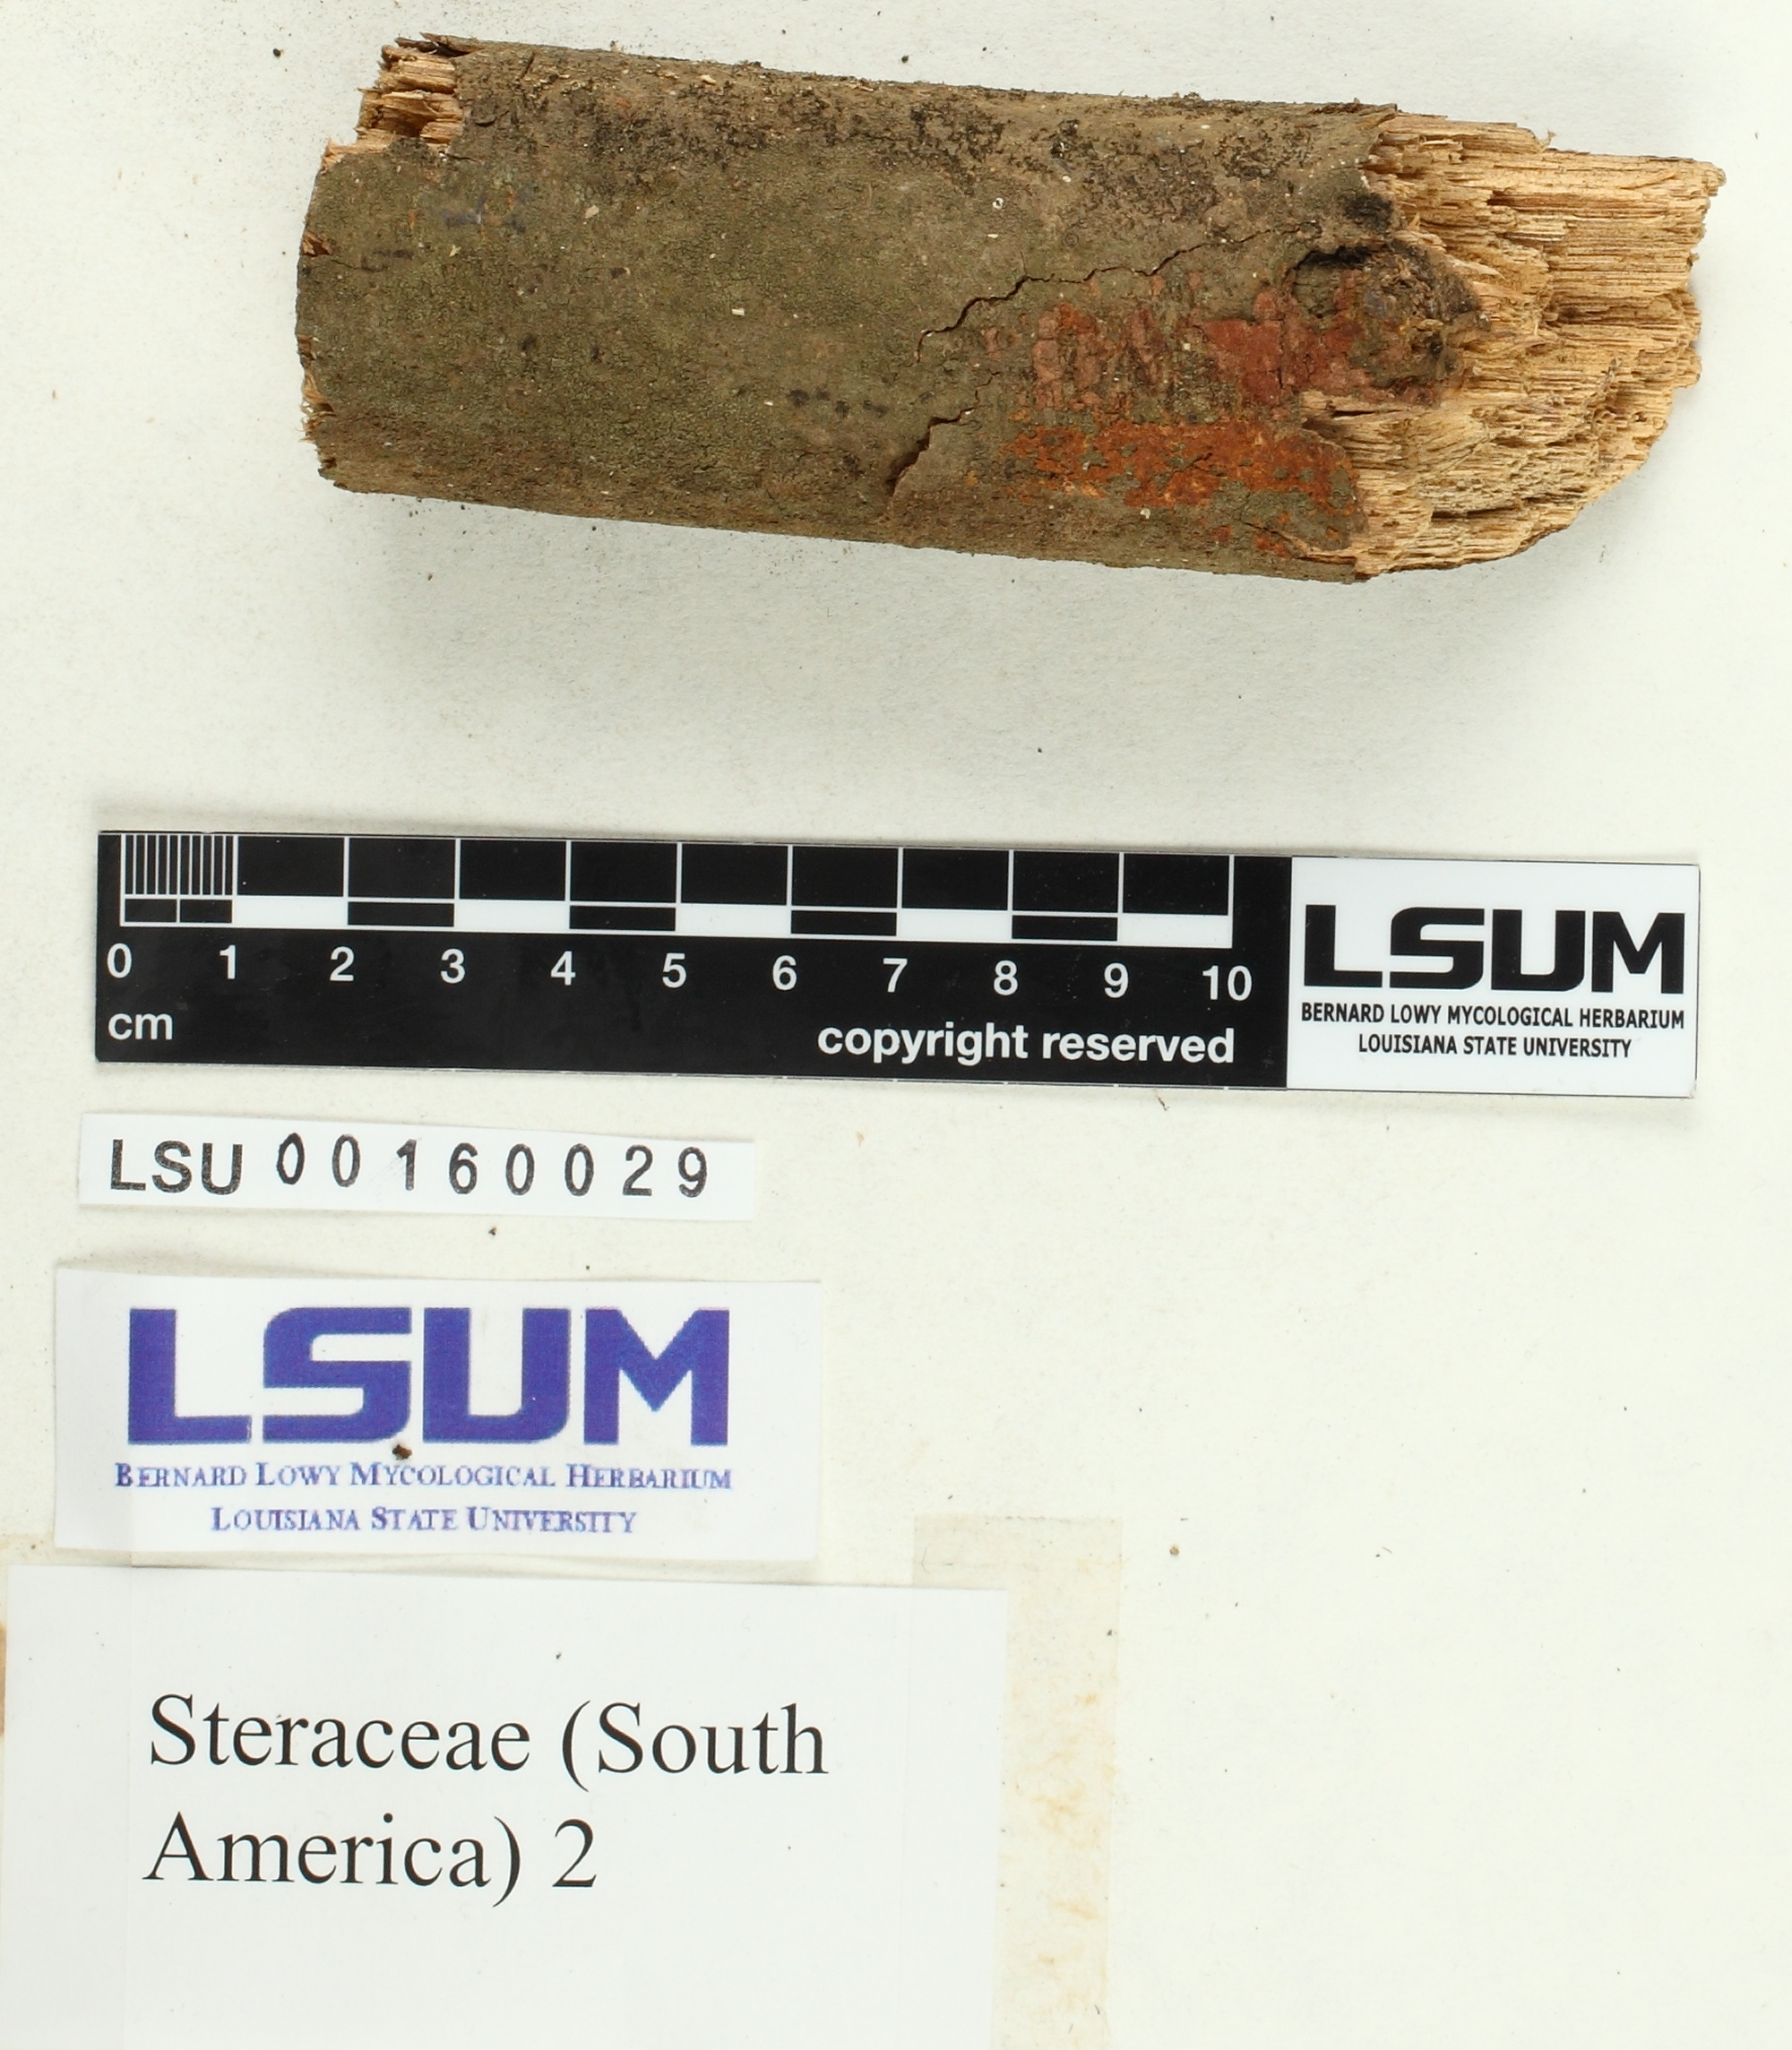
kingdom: Fungi
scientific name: Fungi
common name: Fungi
